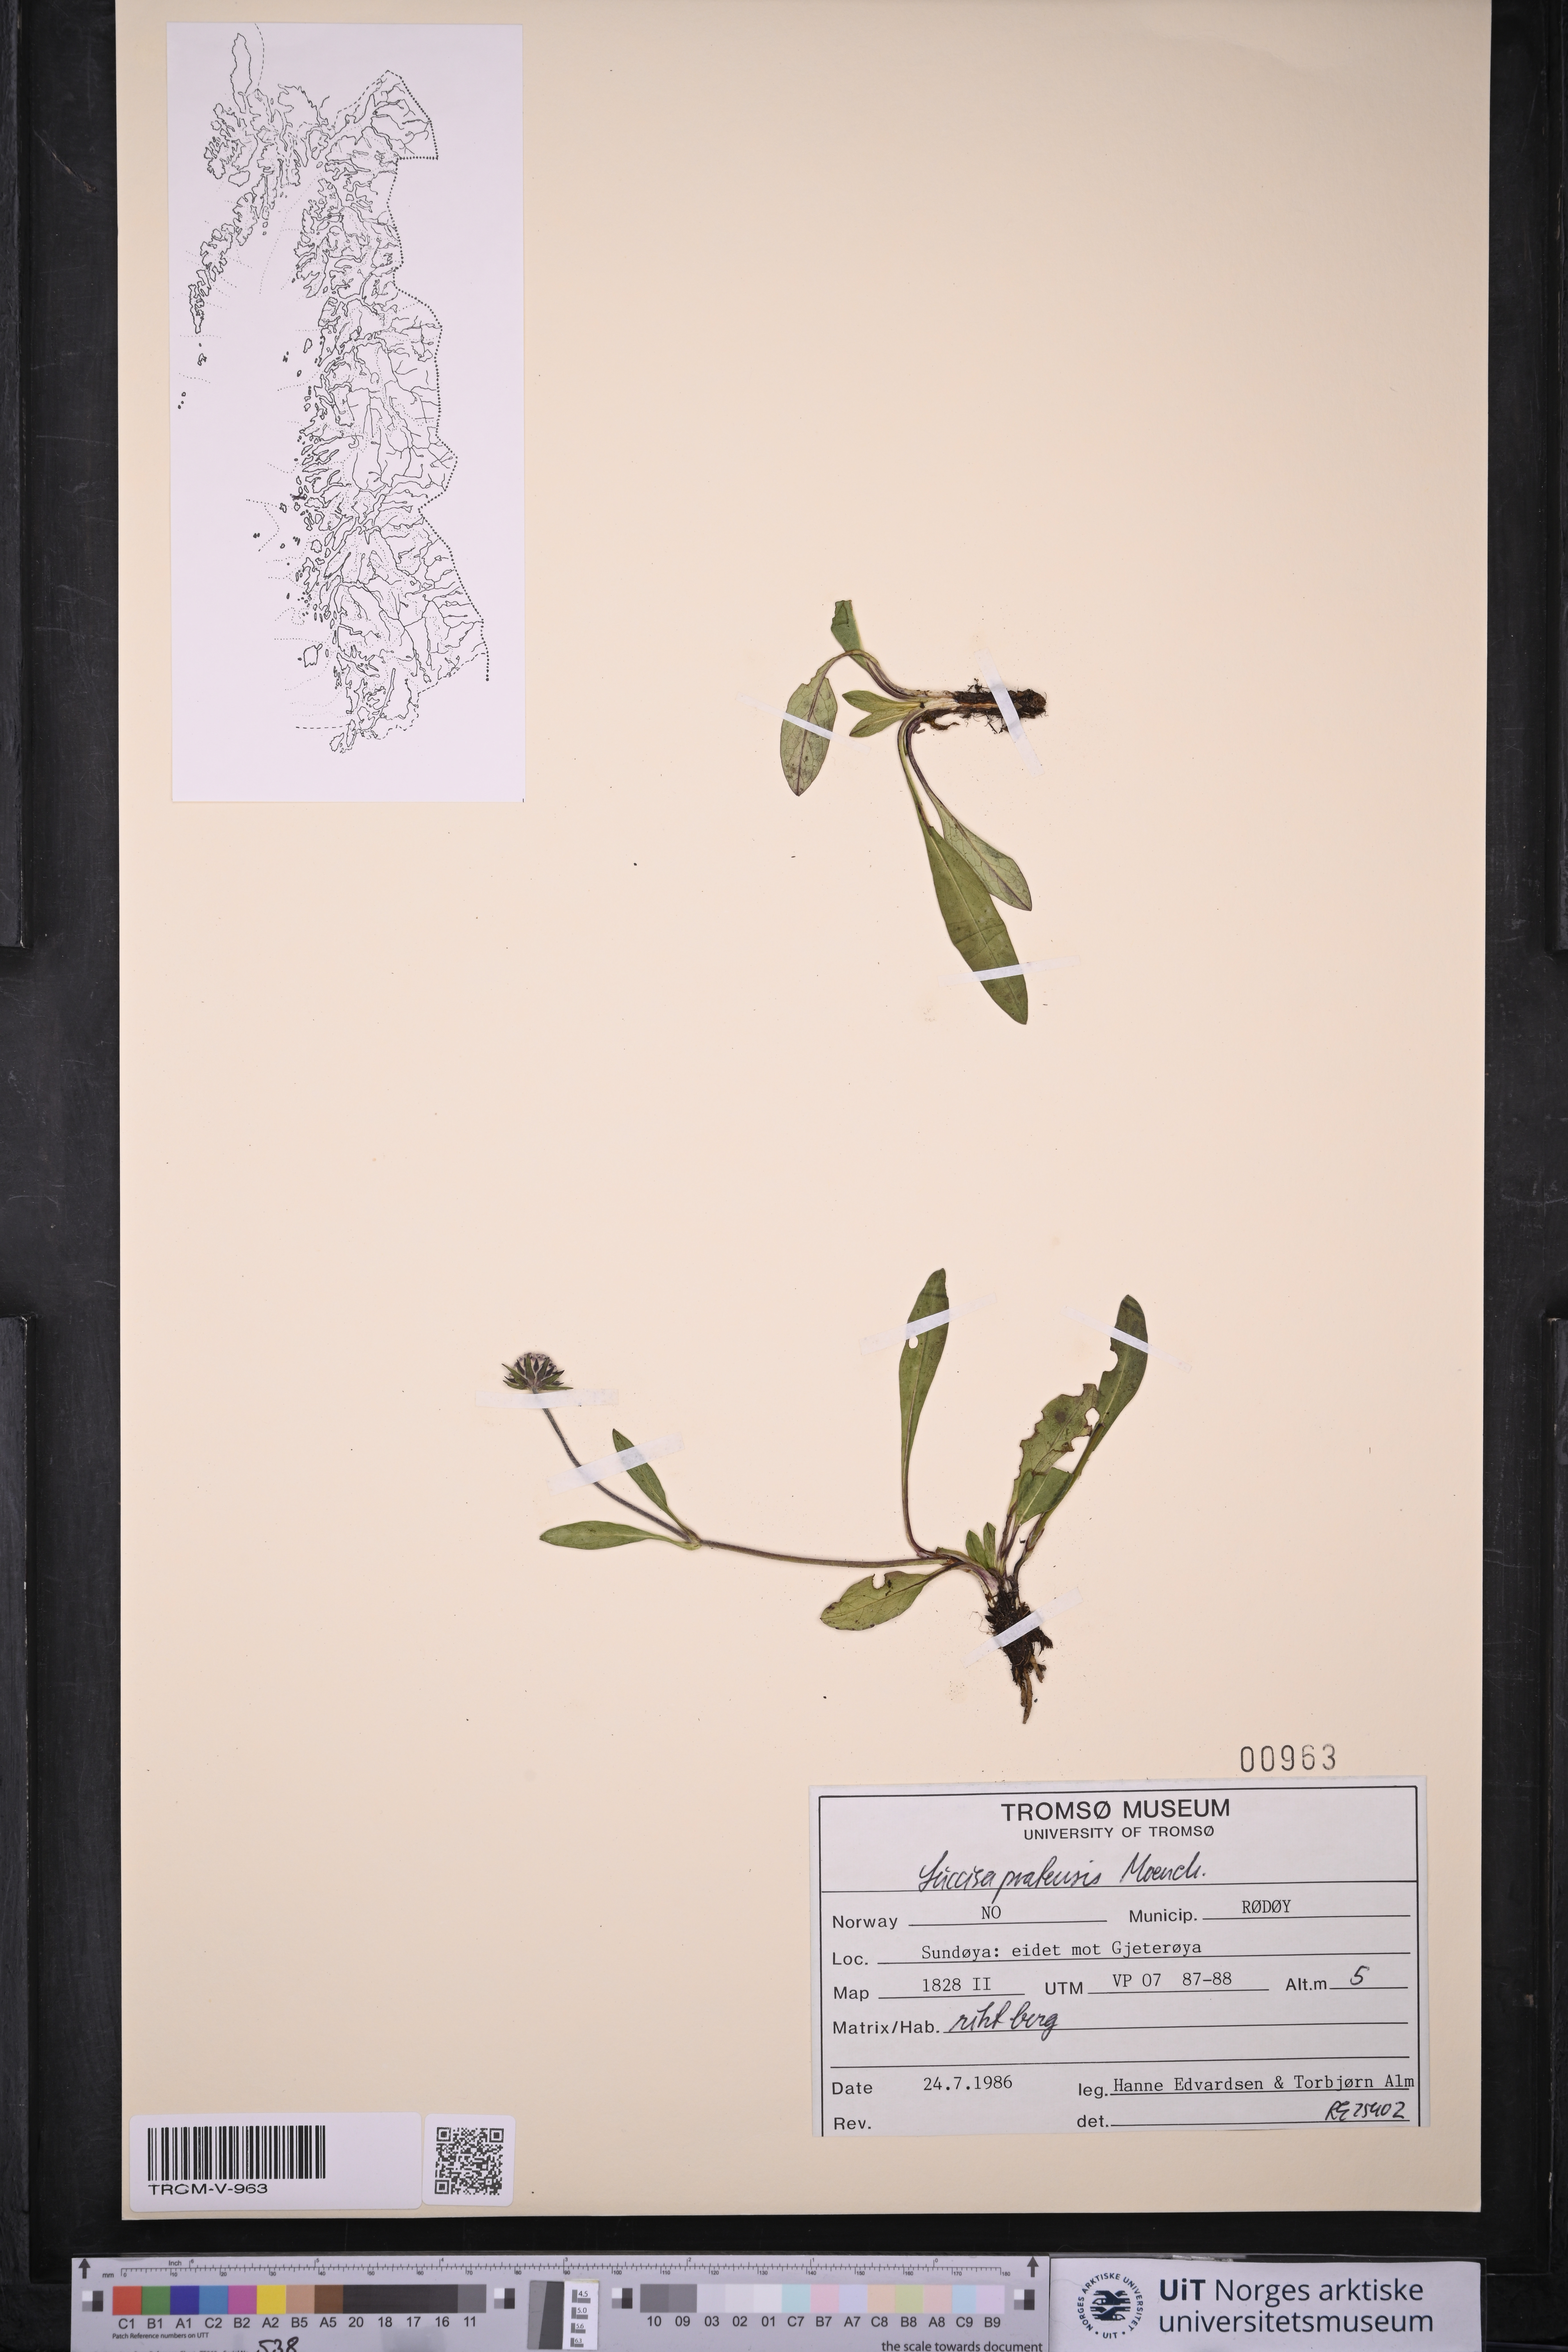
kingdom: Plantae
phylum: Tracheophyta
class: Magnoliopsida
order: Dipsacales
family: Caprifoliaceae
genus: Succisa
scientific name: Succisa pratensis
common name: Devil's-bit
